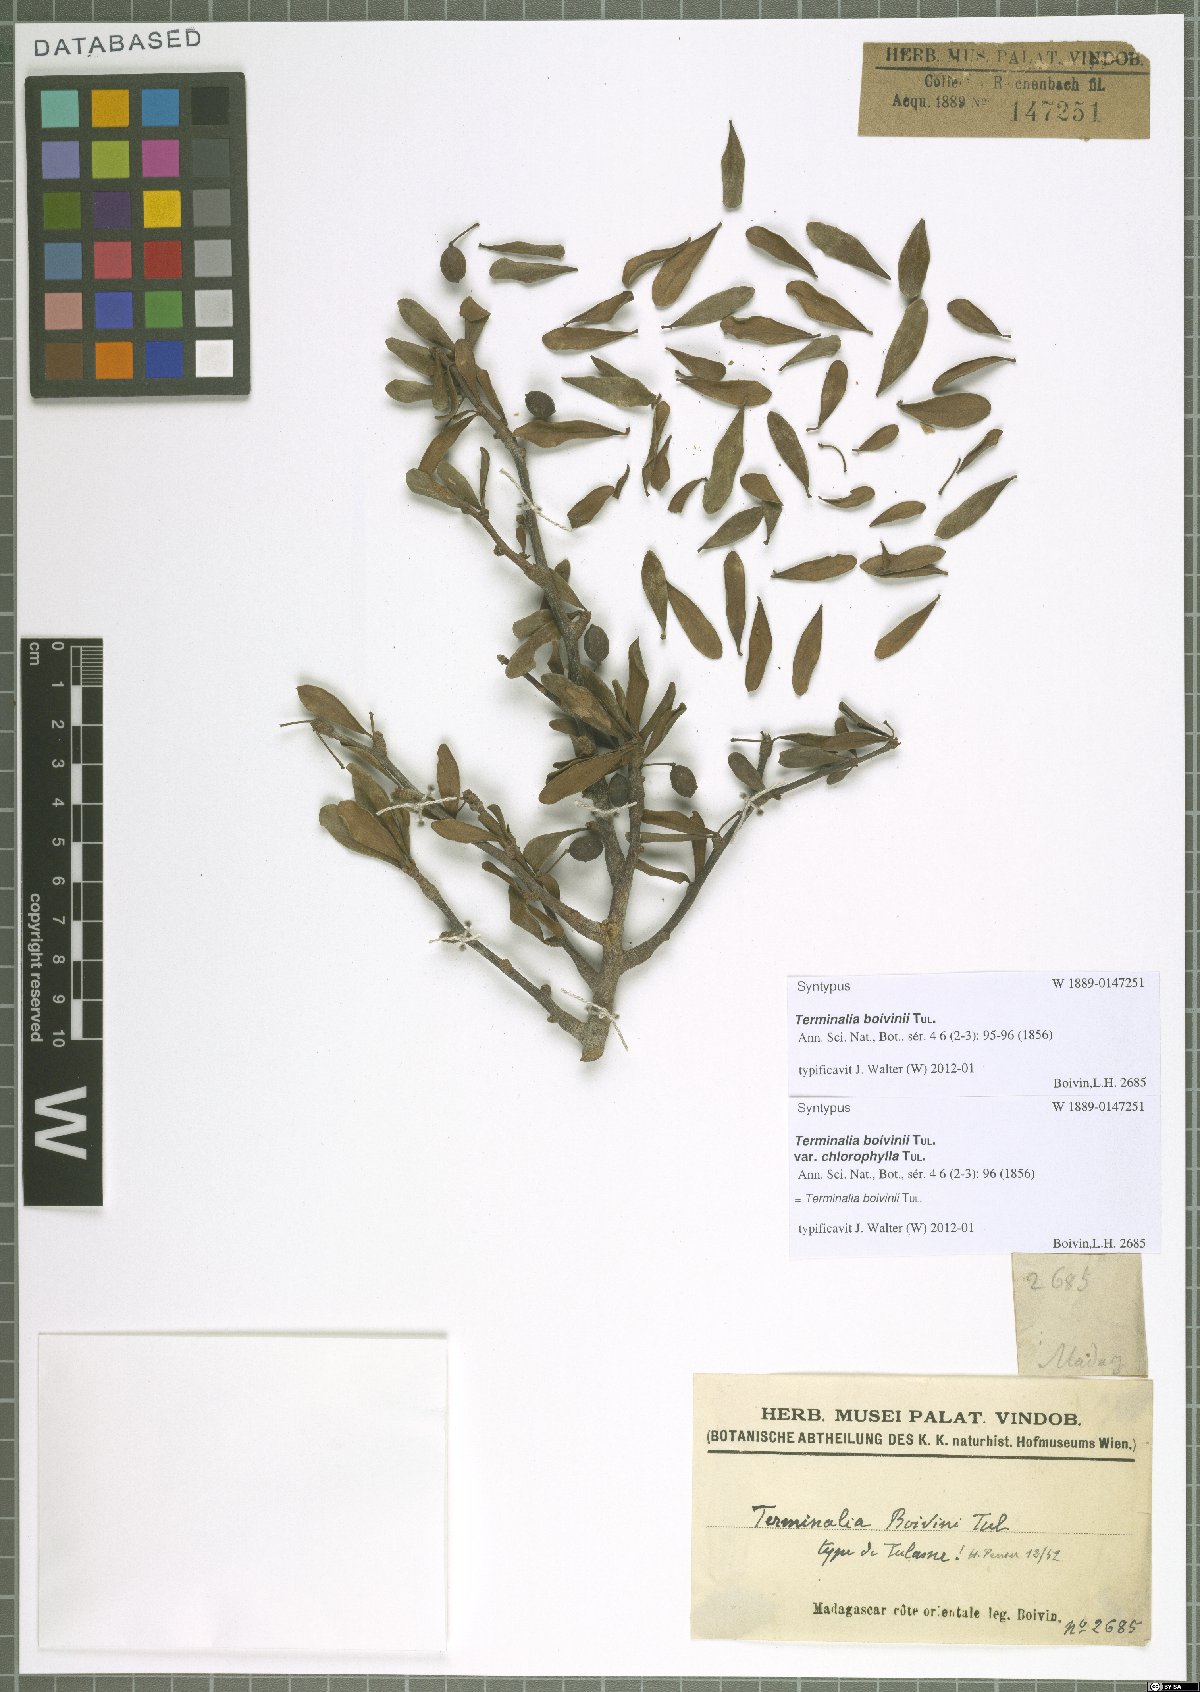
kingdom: Plantae
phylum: Tracheophyta
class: Magnoliopsida
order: Myrtales
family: Combretaceae
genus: Terminalia
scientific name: Terminalia boivinii
